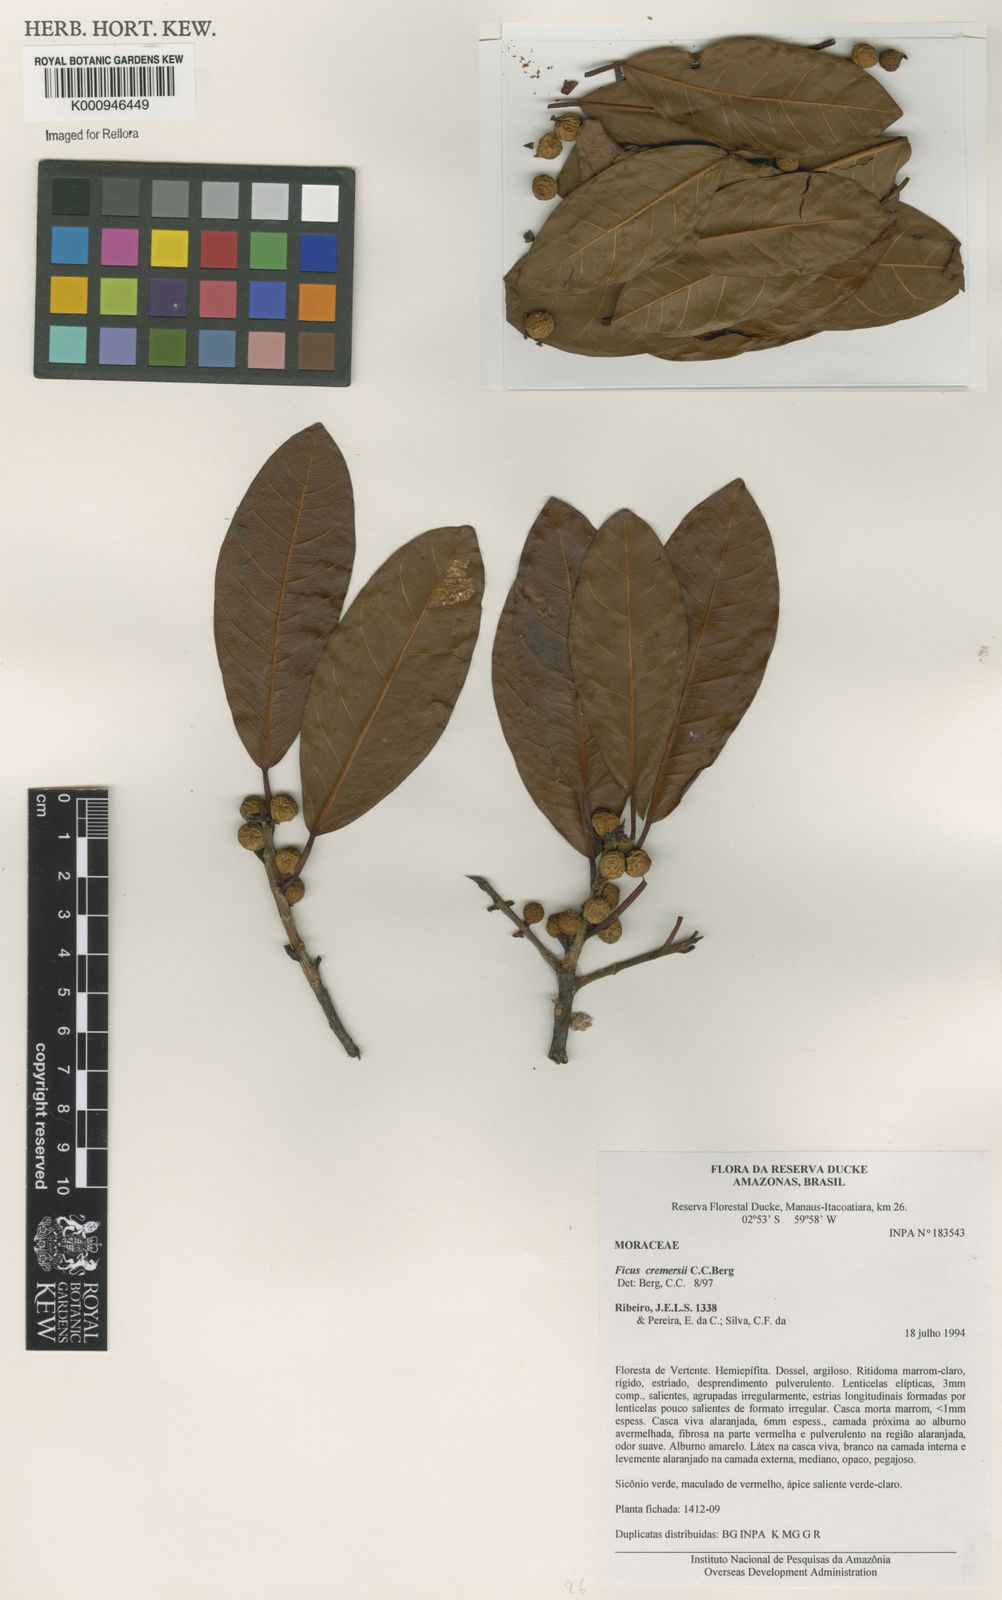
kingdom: Plantae
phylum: Tracheophyta
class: Magnoliopsida
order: Rosales
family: Moraceae
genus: Ficus
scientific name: Ficus cremersii
